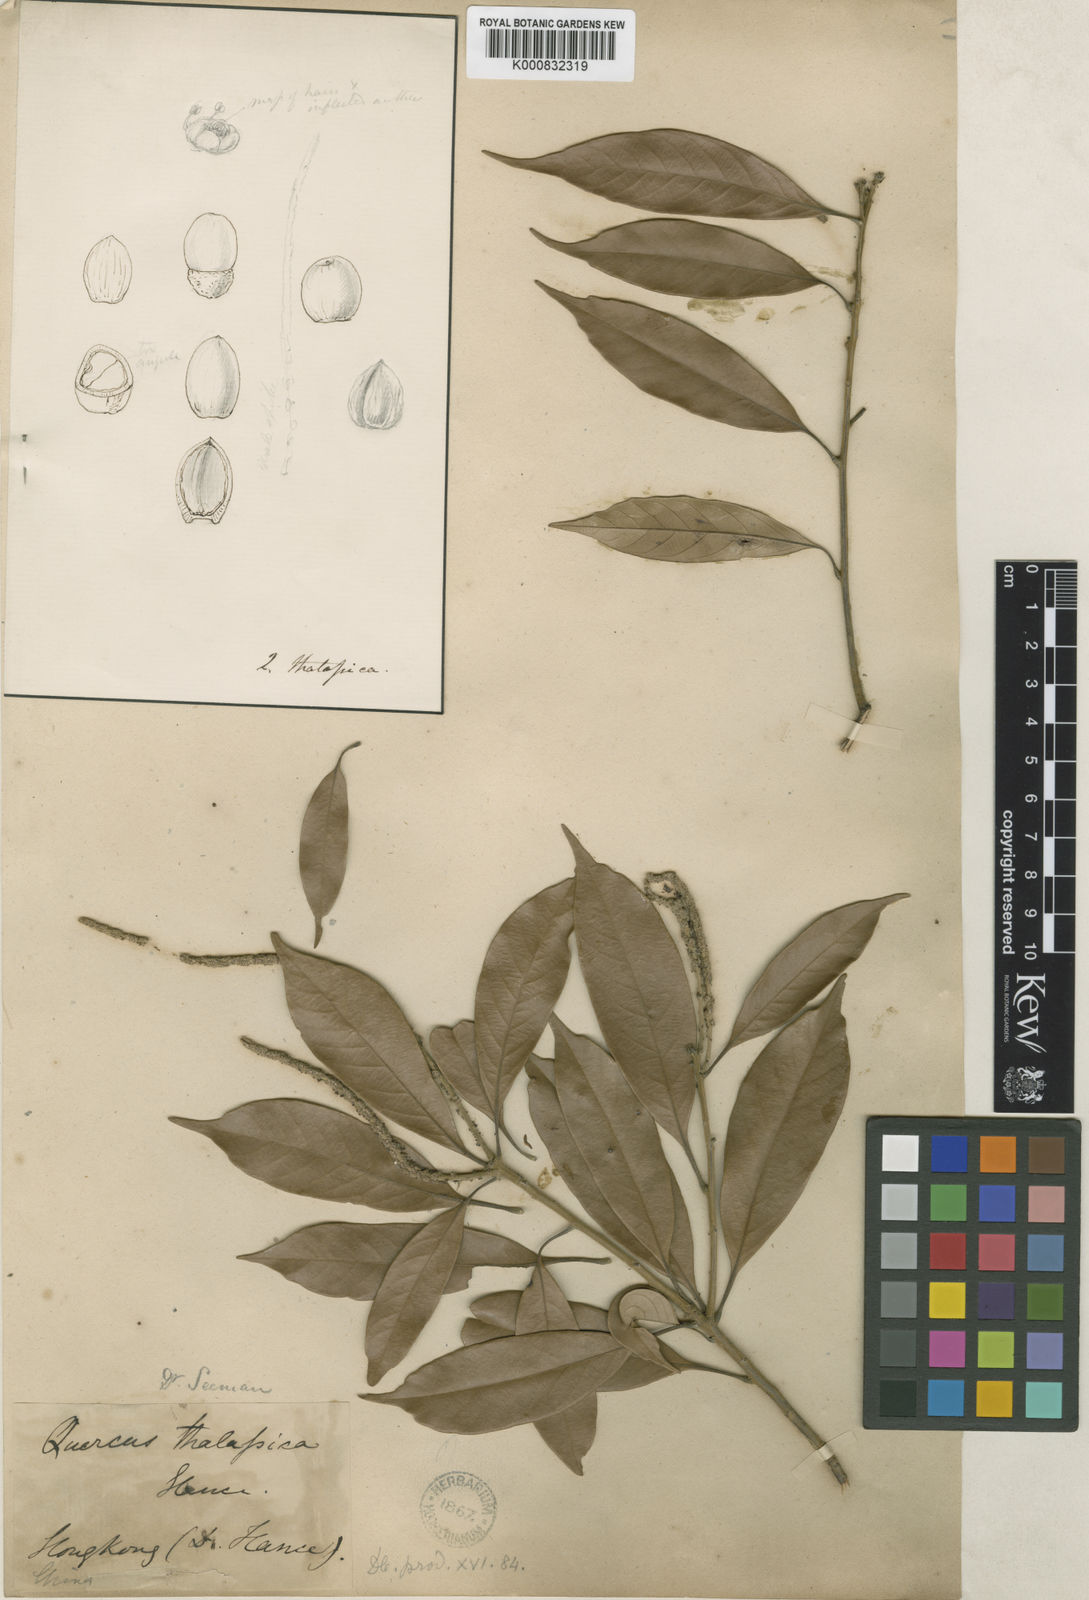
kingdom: Plantae
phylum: Tracheophyta
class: Magnoliopsida
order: Fagales
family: Fagaceae
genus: Lithocarpus
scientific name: Lithocarpus
